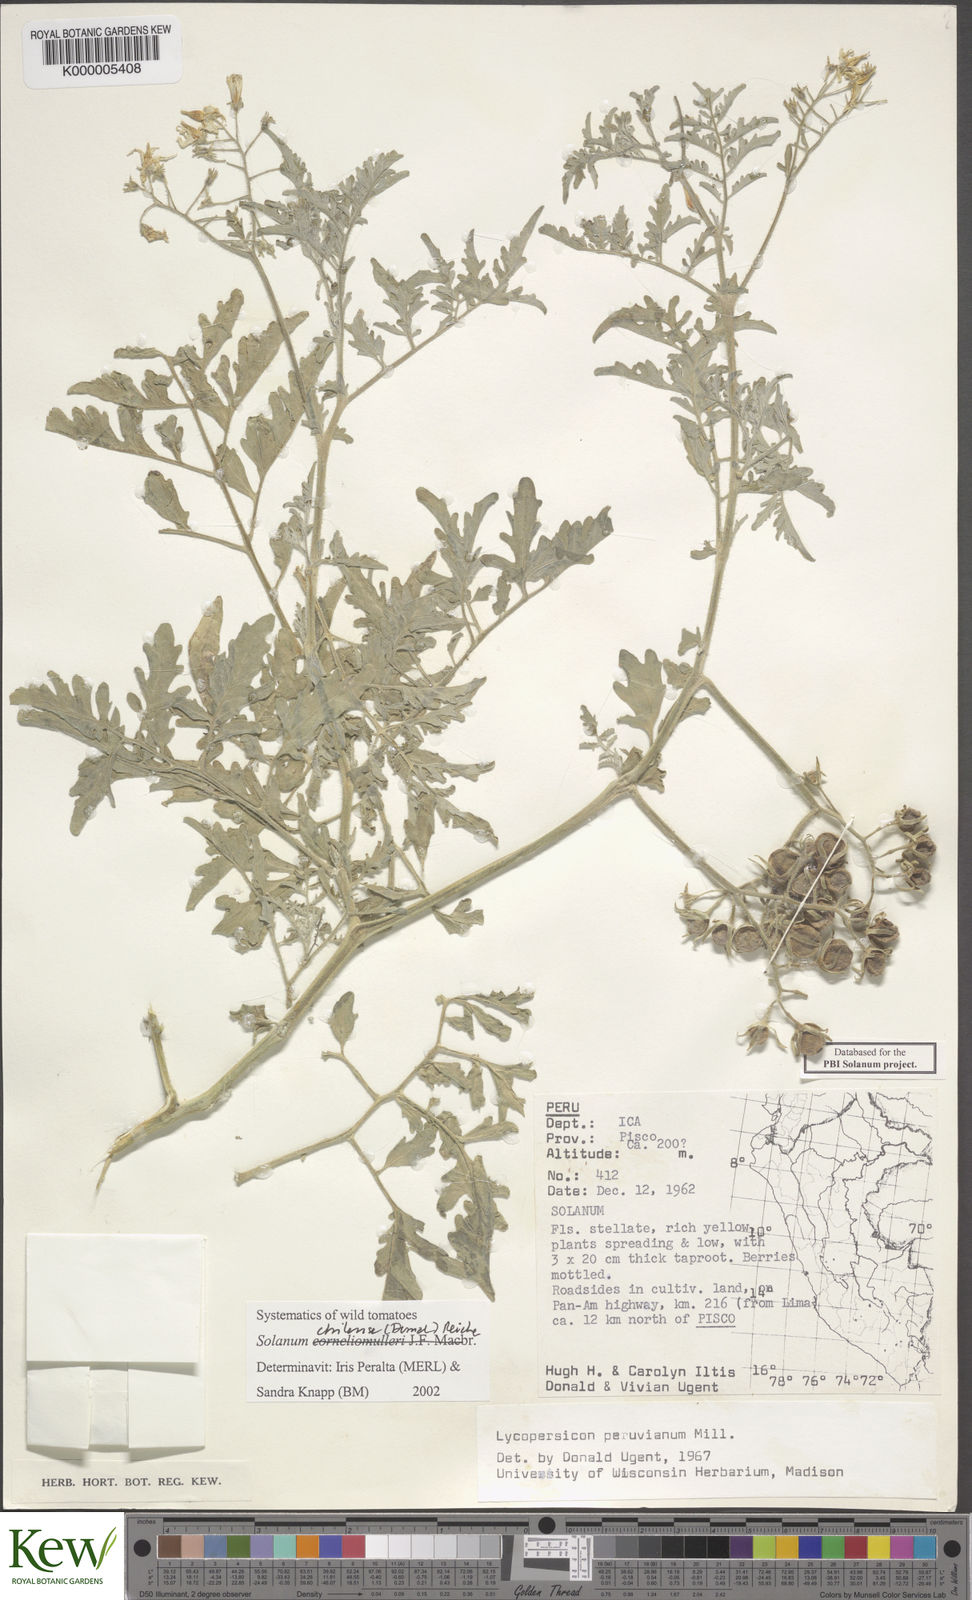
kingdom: Plantae
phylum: Tracheophyta
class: Magnoliopsida
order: Solanales
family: Solanaceae
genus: Solanum
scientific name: Solanum chilense
